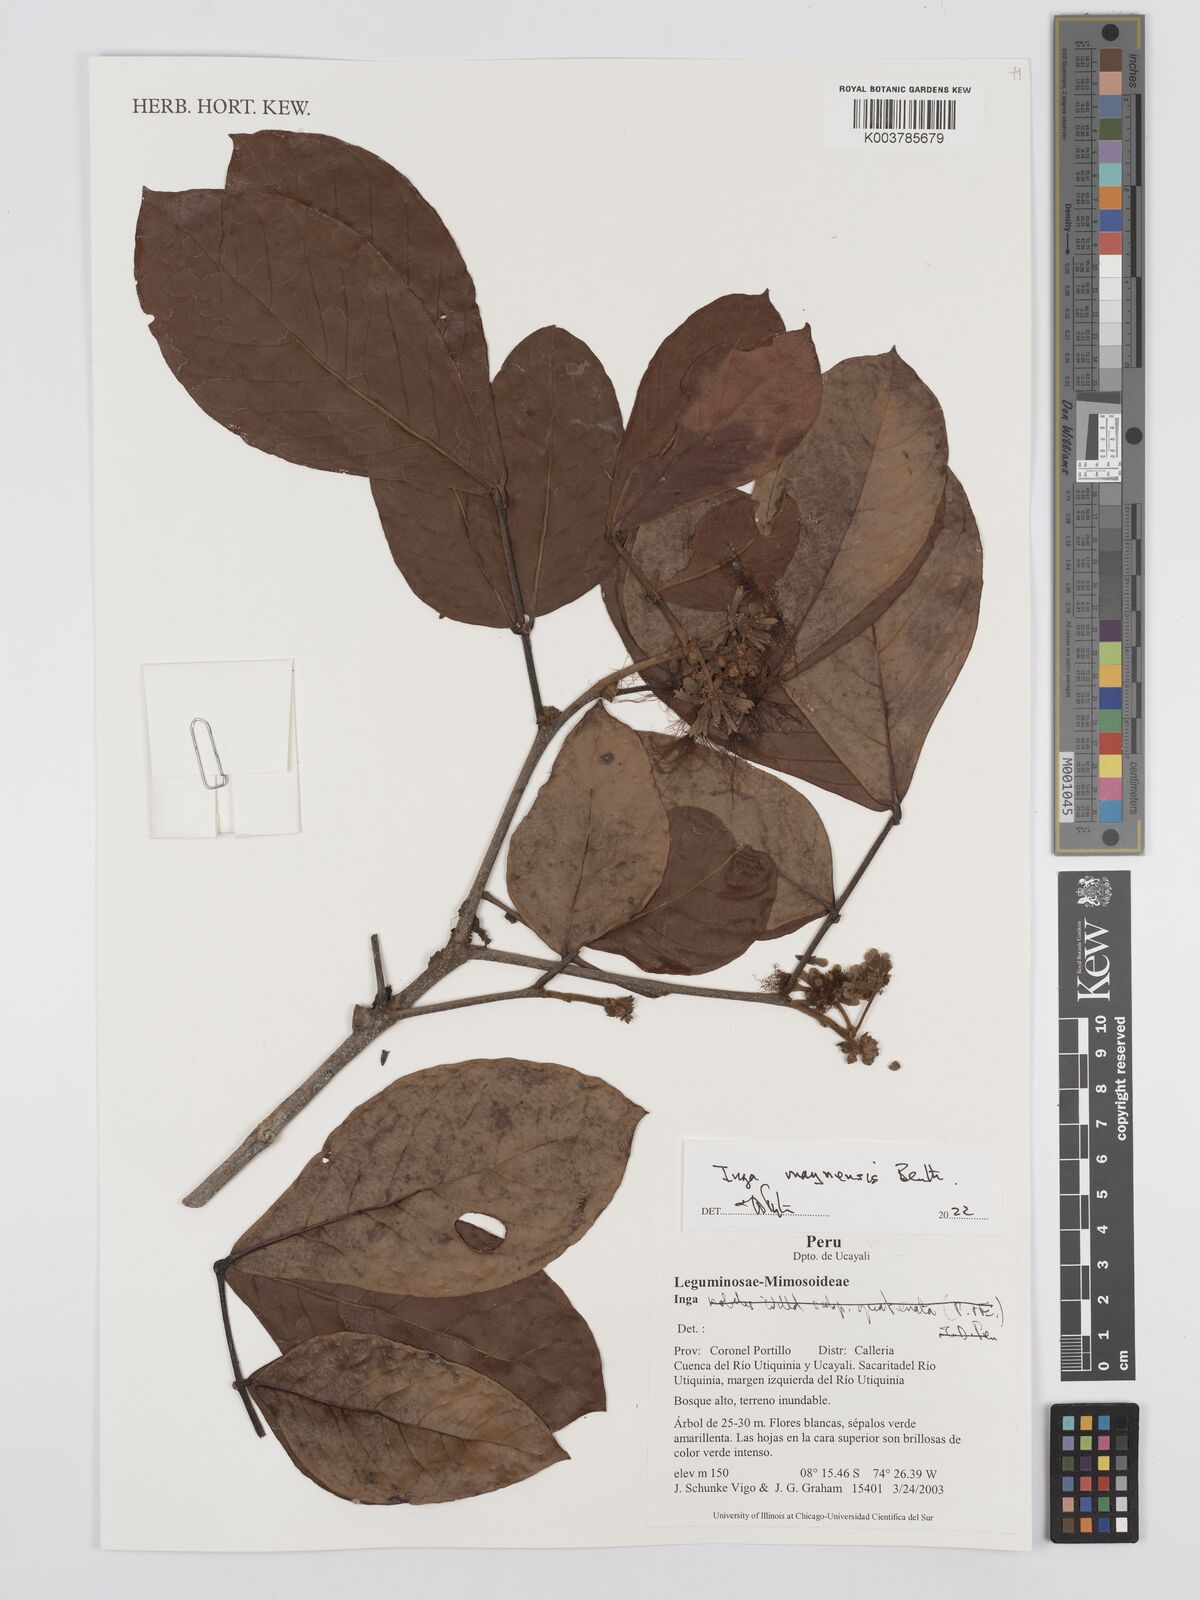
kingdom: Plantae
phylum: Tracheophyta
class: Magnoliopsida
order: Fabales
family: Fabaceae
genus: Inga
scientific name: Inga maynensis
